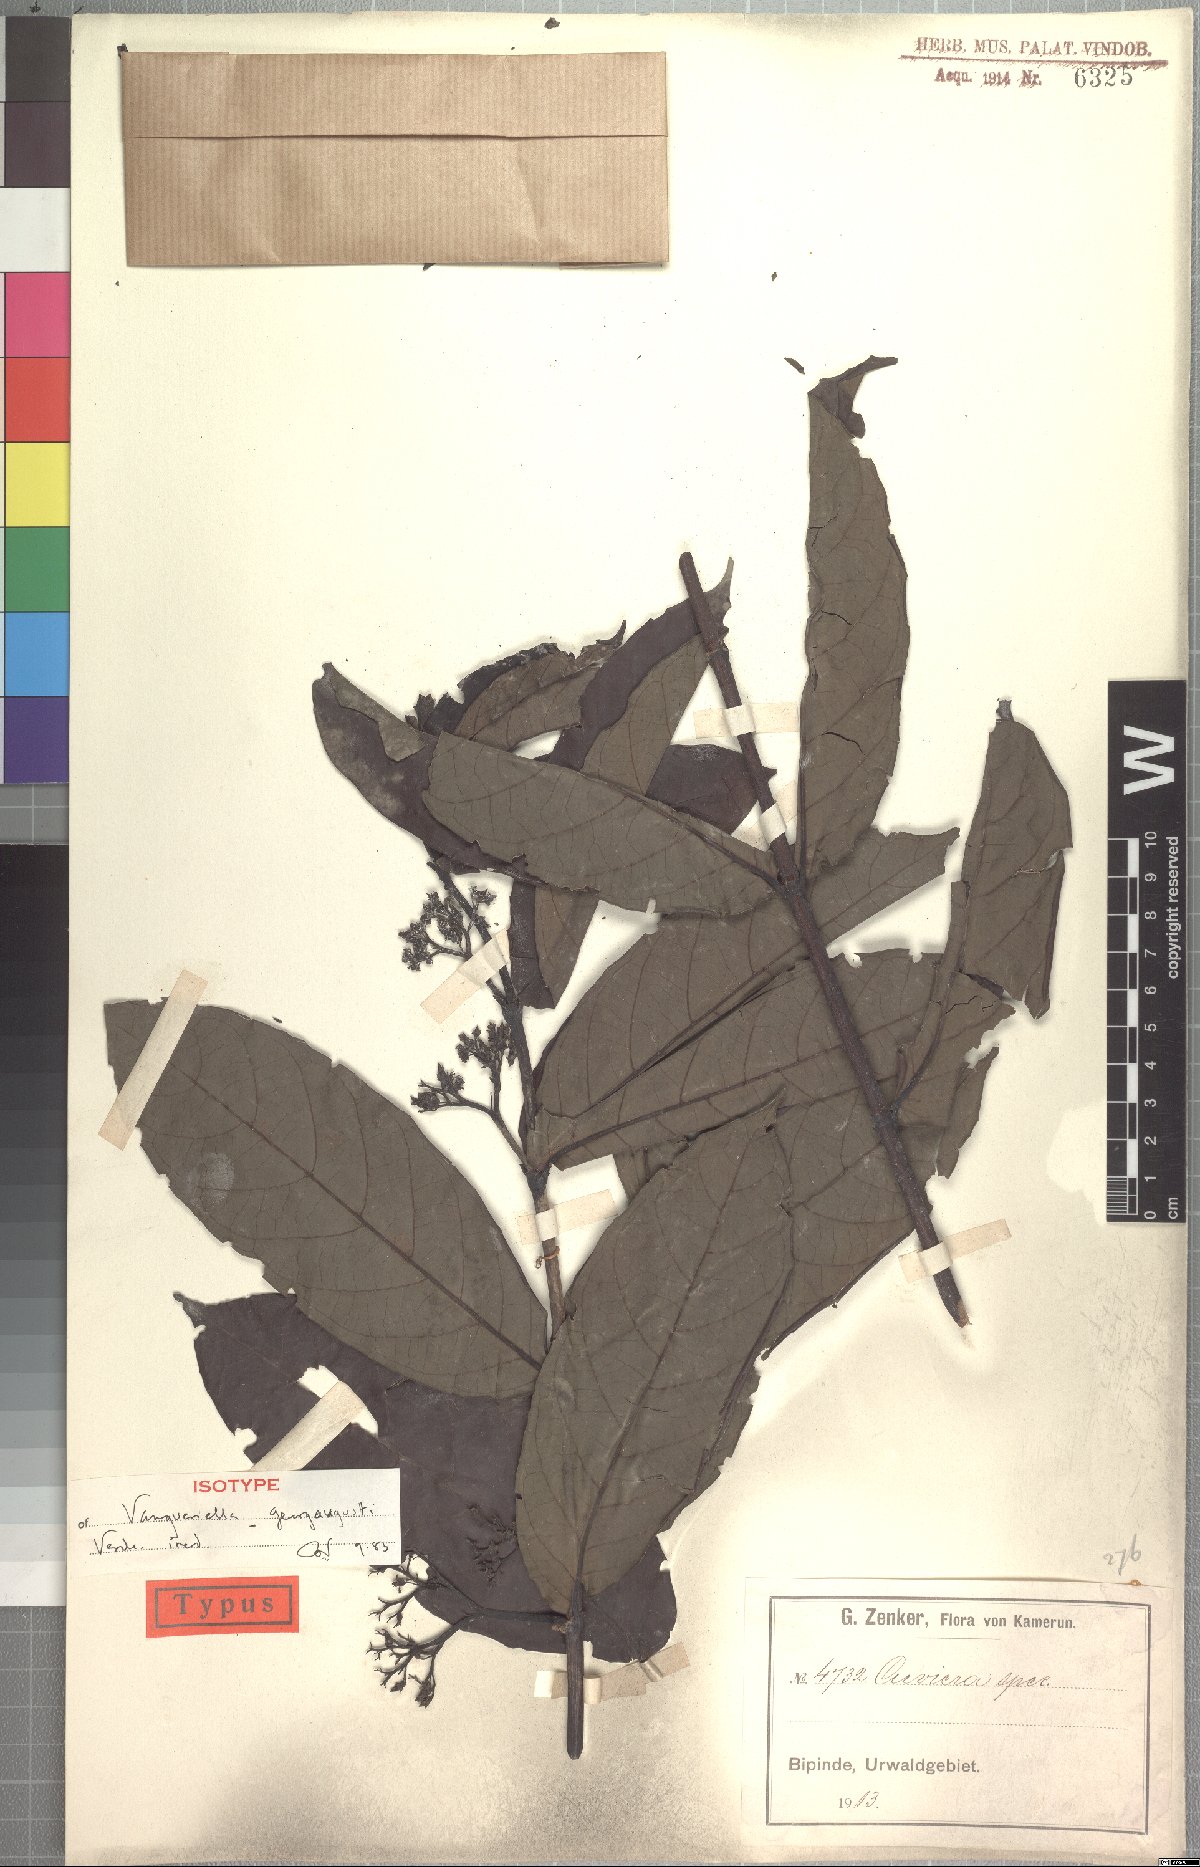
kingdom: Plantae
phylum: Tracheophyta
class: Magnoliopsida
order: Gentianales
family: Rubiaceae
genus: Rudgea
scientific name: Rudgea coriacea
